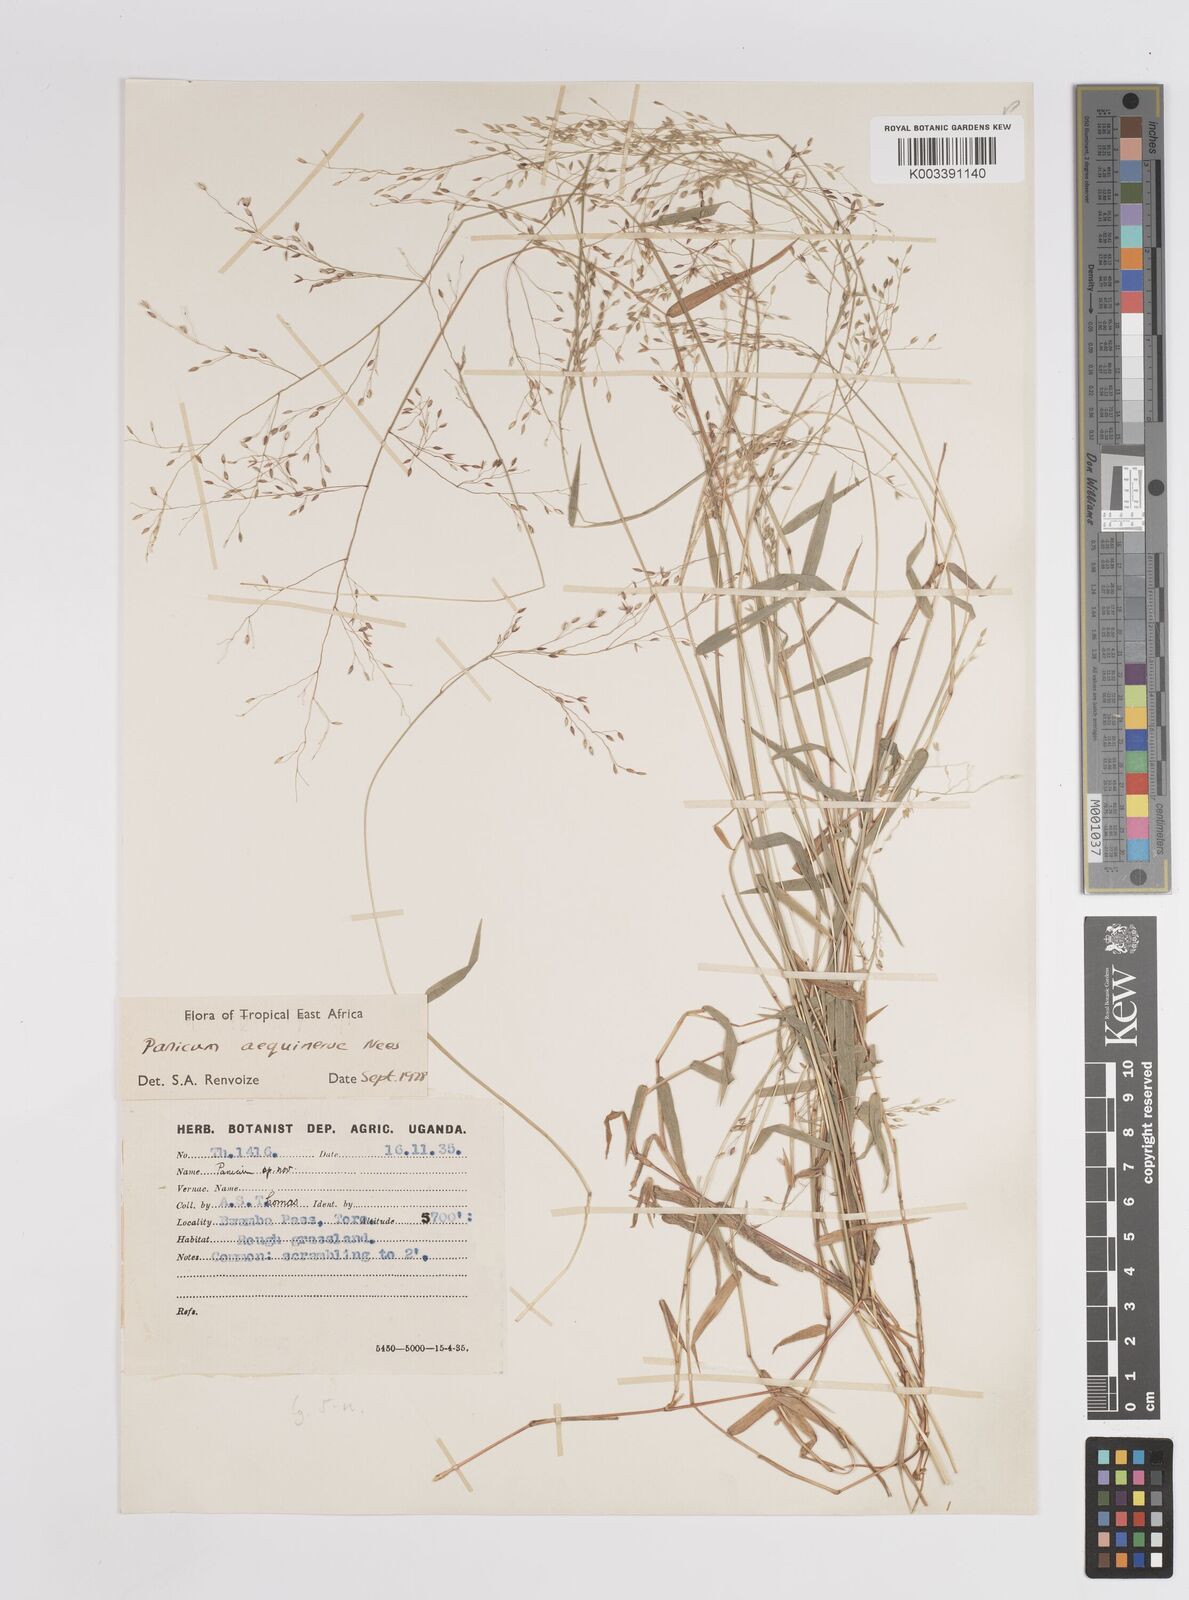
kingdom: Plantae
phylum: Tracheophyta
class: Liliopsida
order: Poales
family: Poaceae
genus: Panicum
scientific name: Panicum aequinerve
